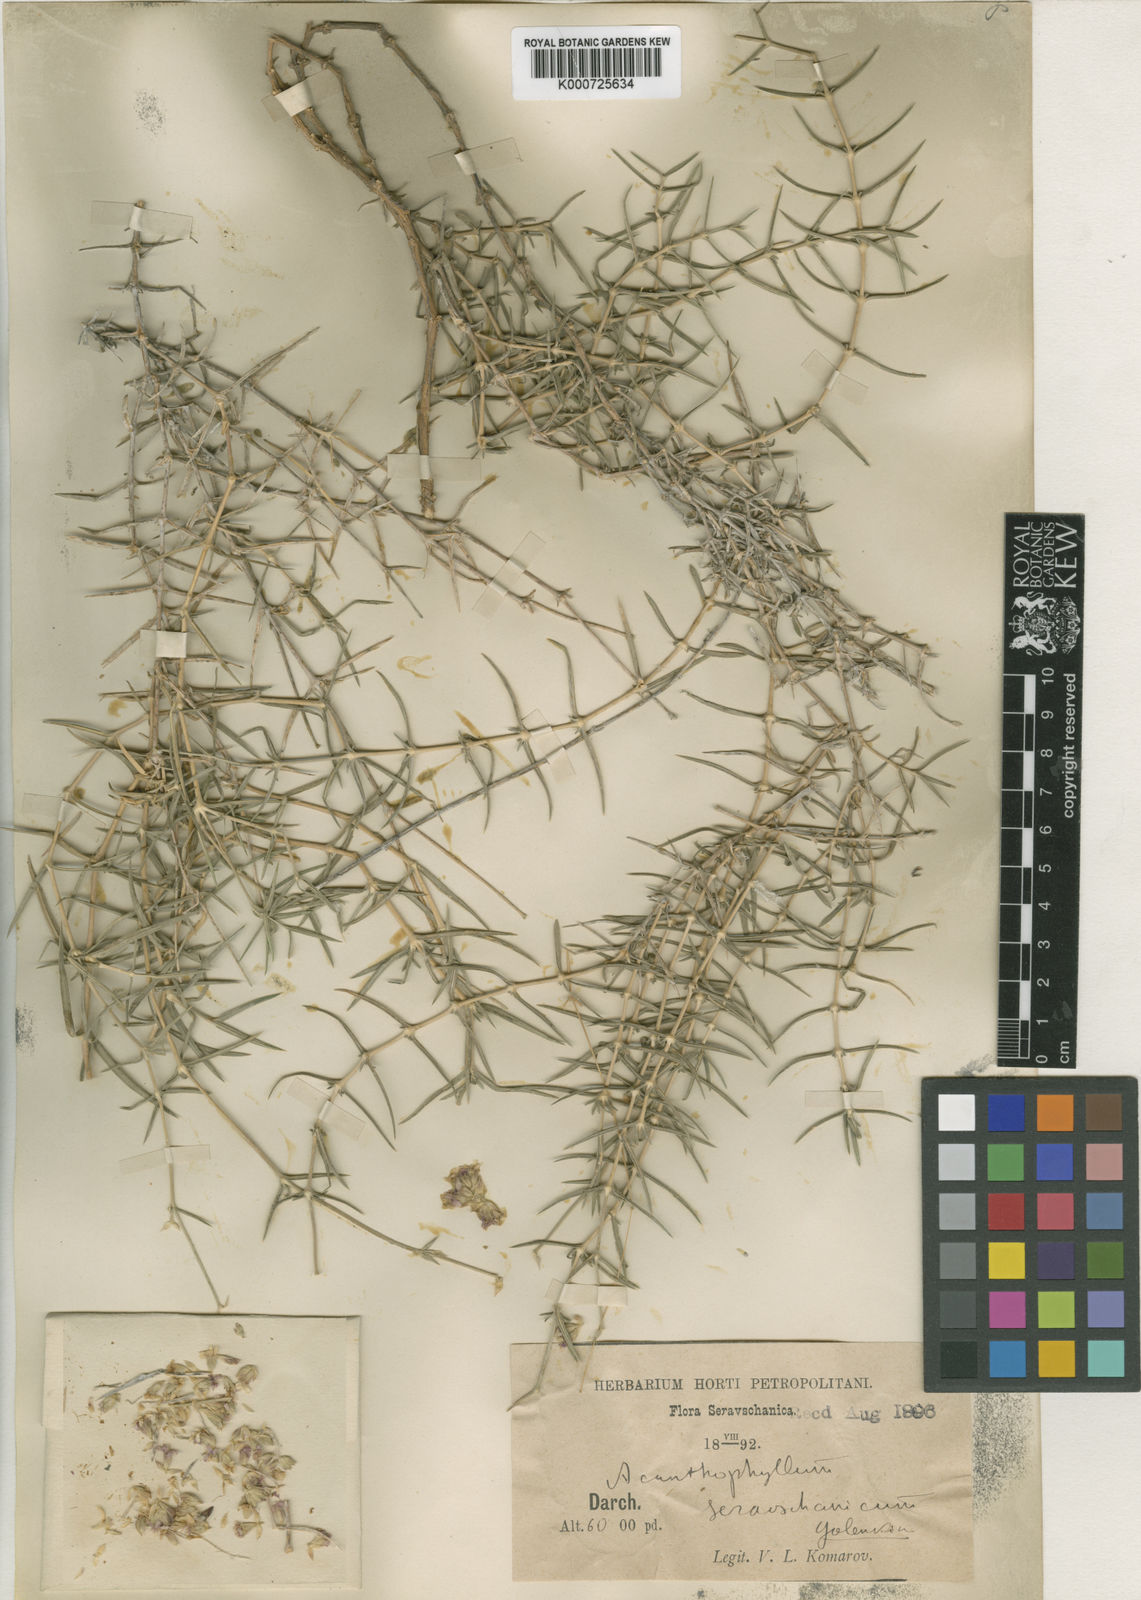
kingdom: Plantae
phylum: Tracheophyta
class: Magnoliopsida
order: Caryophyllales
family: Caryophyllaceae
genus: Acanthophyllum
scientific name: Acanthophyllum
